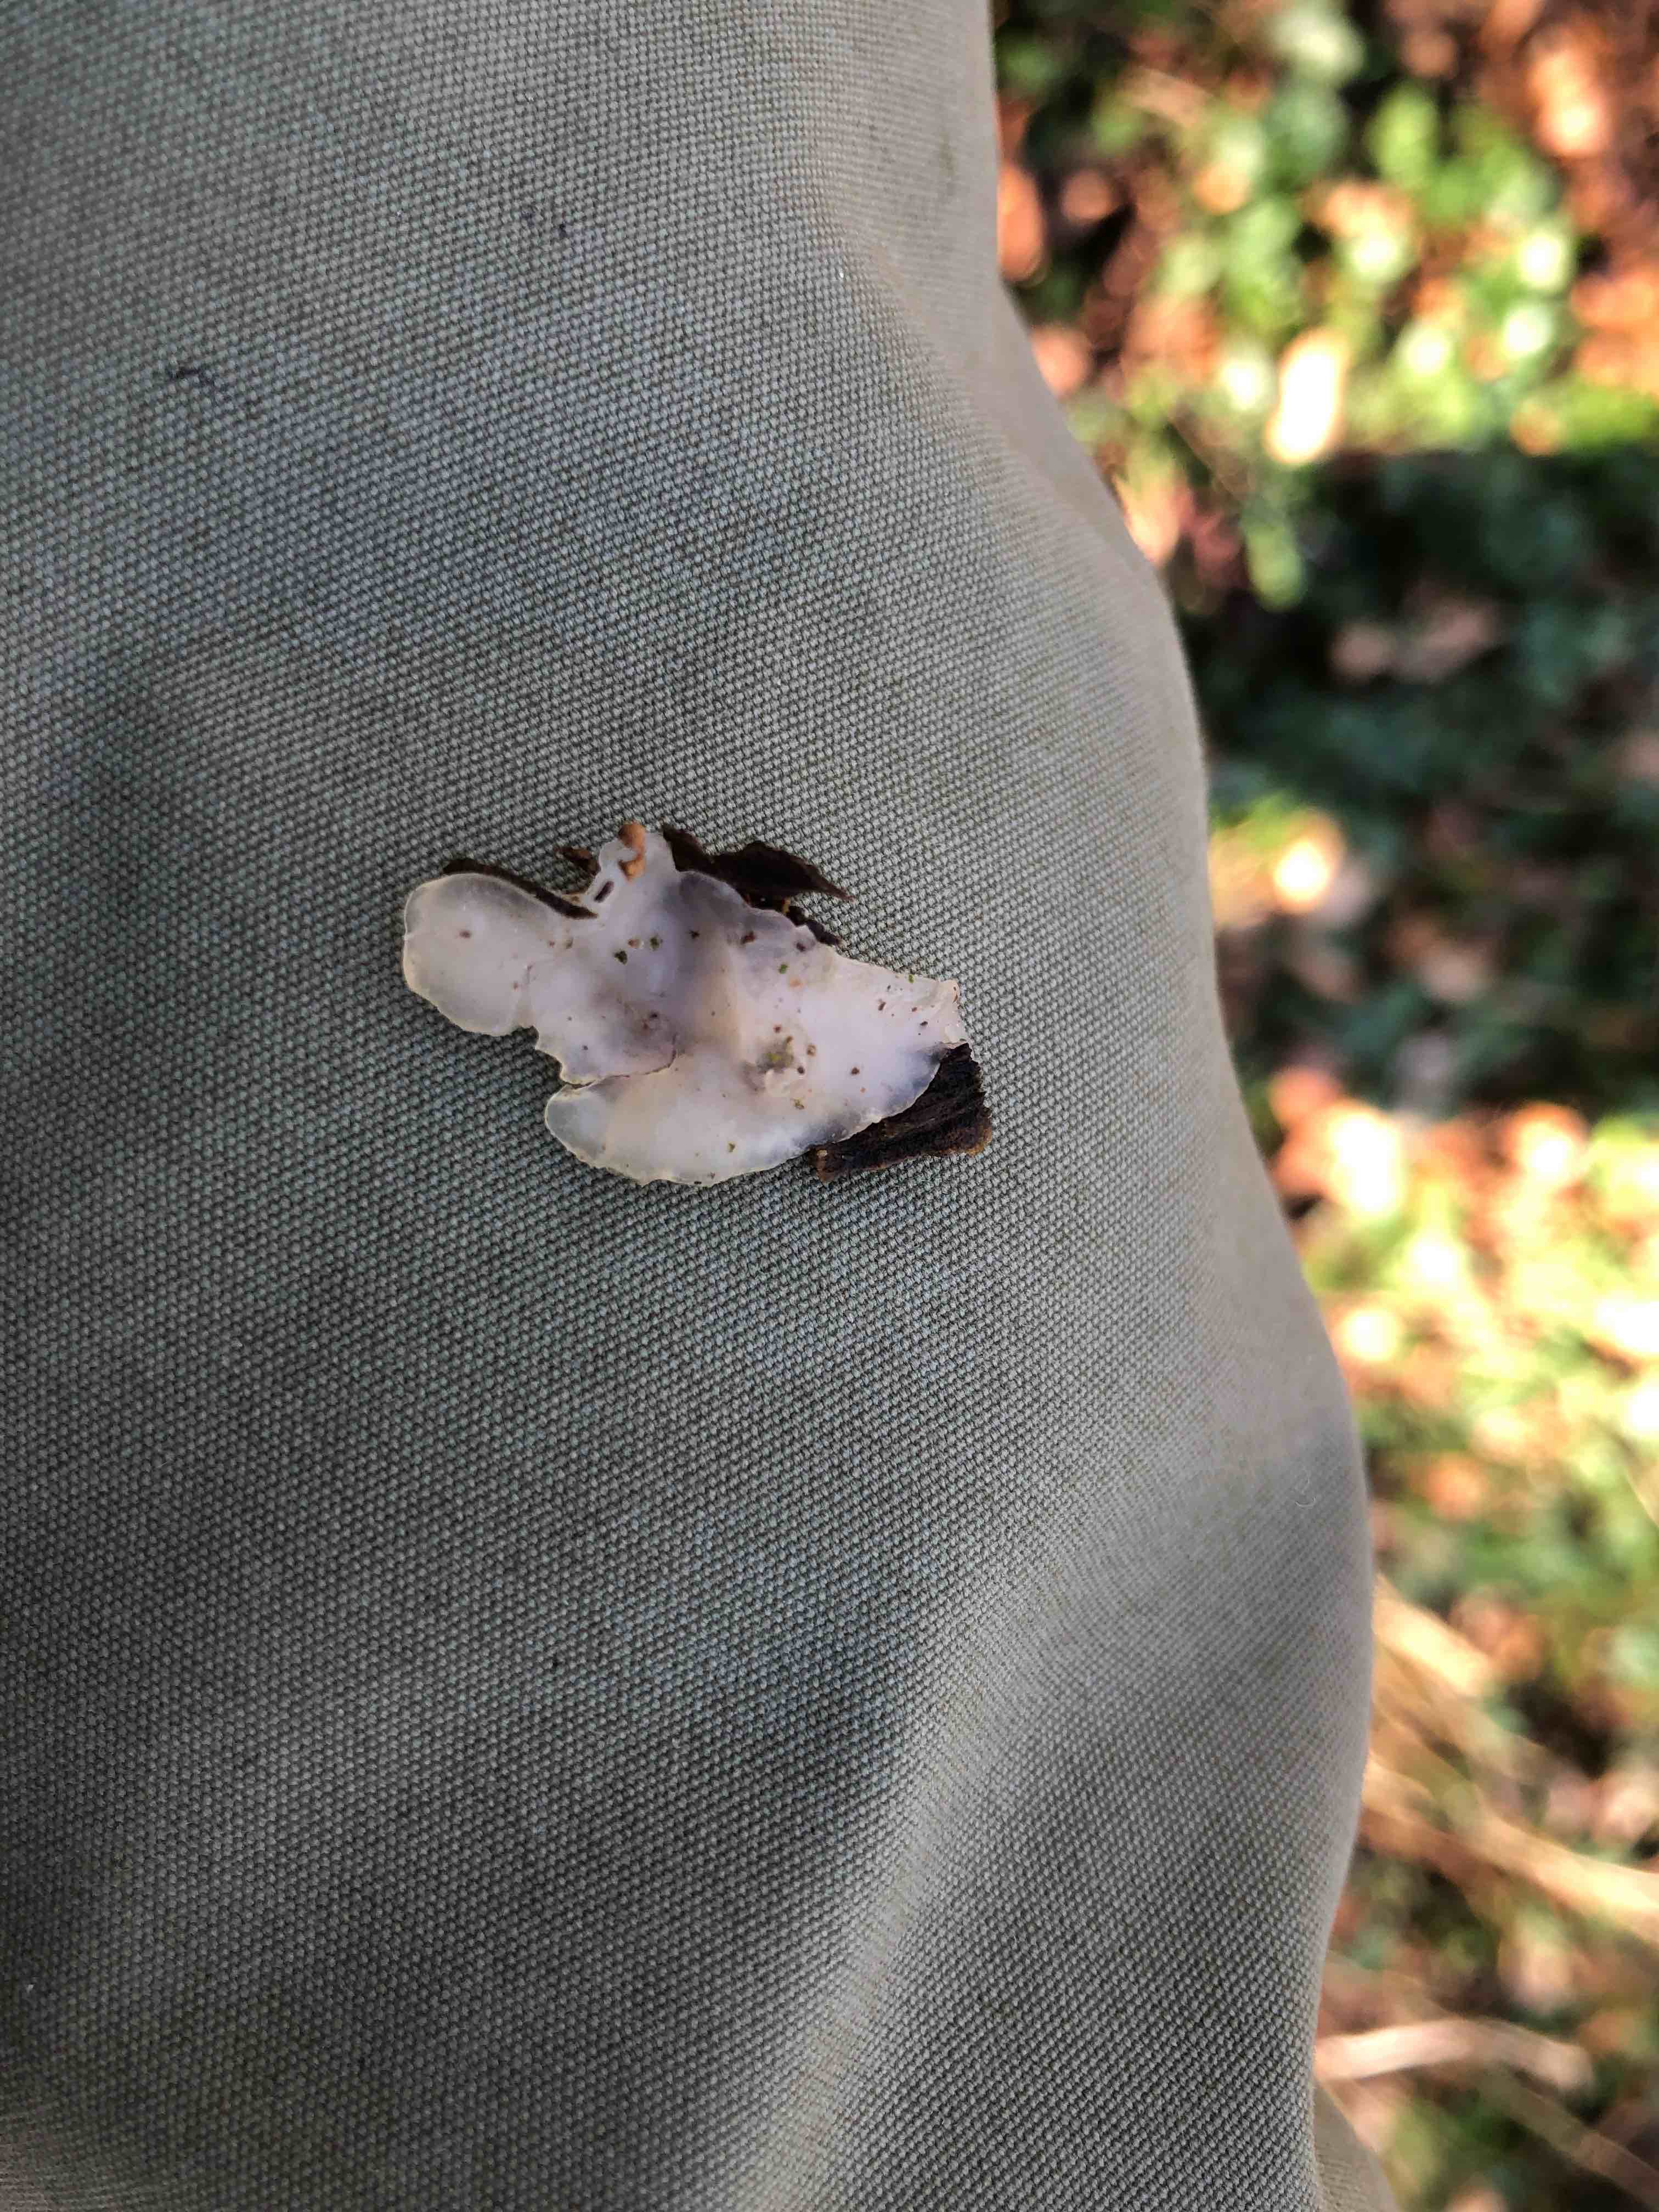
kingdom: Fungi
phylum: Basidiomycota
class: Agaricomycetes
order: Auriculariales
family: Auriculariaceae
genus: Exidia
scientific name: Exidia thuretiana
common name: hvidlig bævretop
